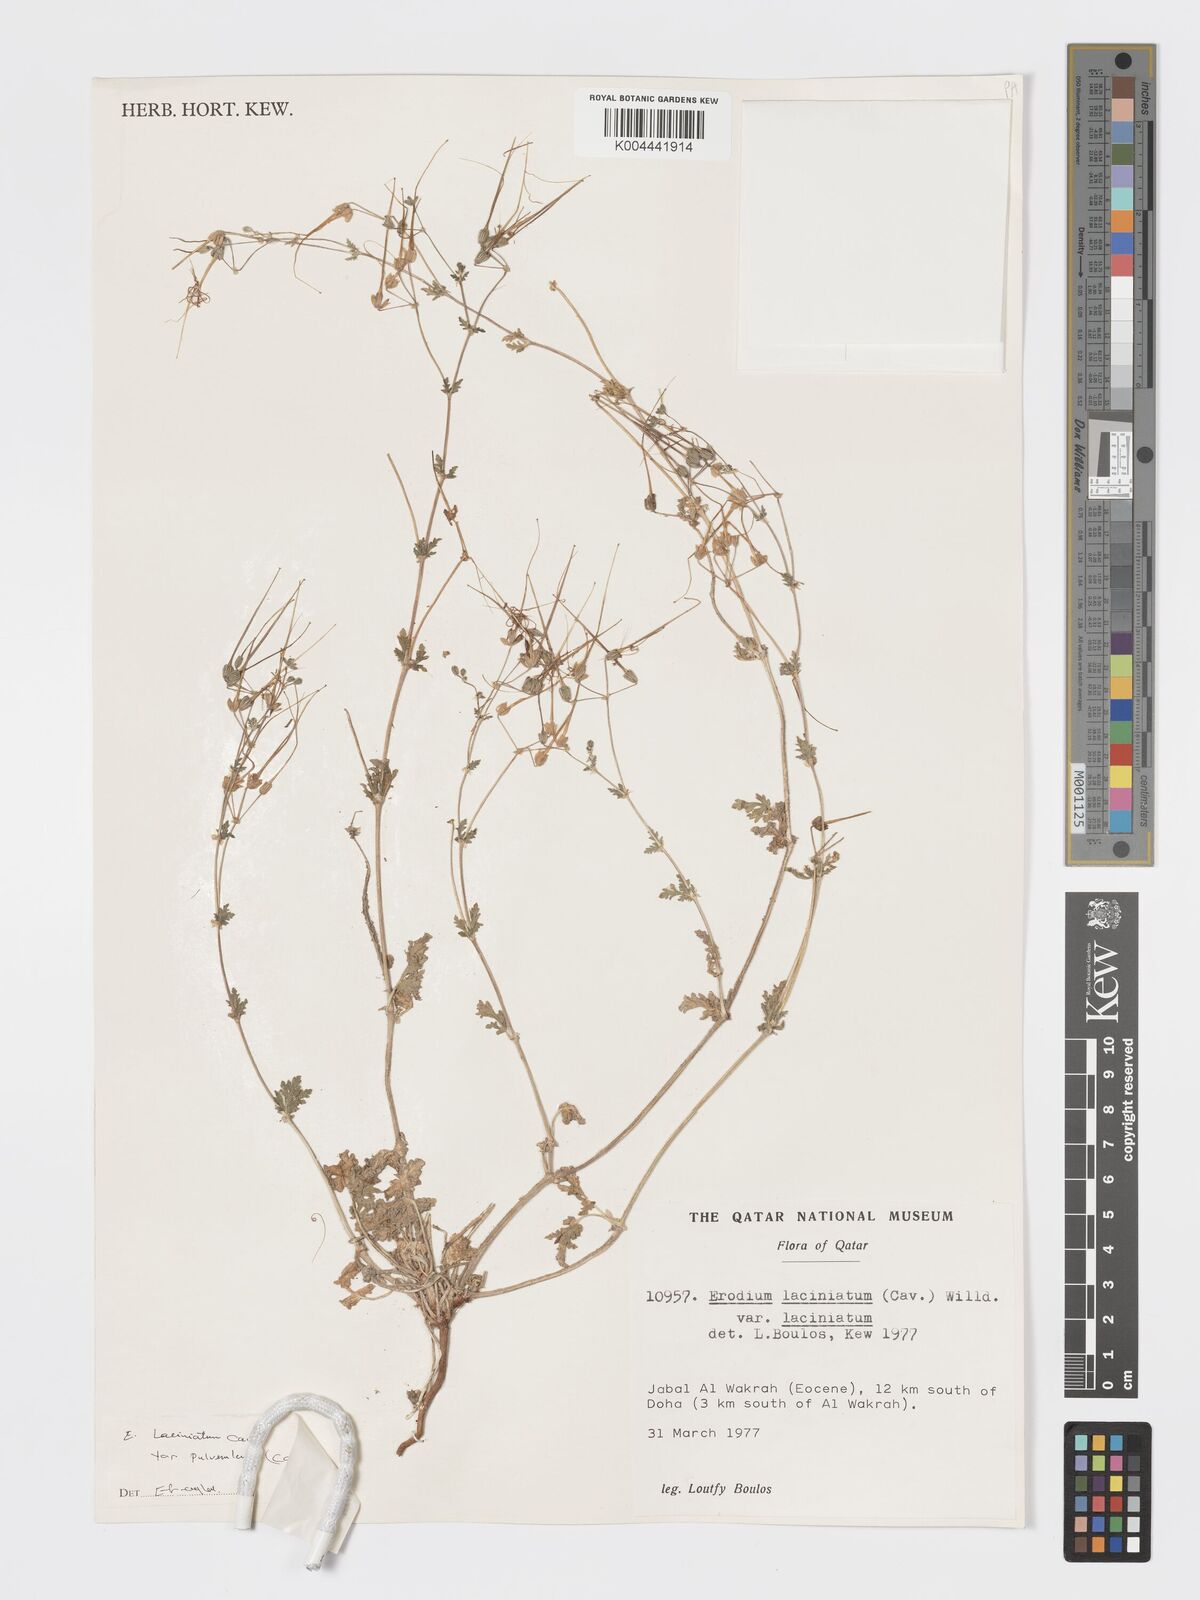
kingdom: Plantae
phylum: Tracheophyta
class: Magnoliopsida
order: Geraniales
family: Geraniaceae
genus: Erodium
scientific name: Erodium laciniatum
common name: Cutleaf stork's bill
